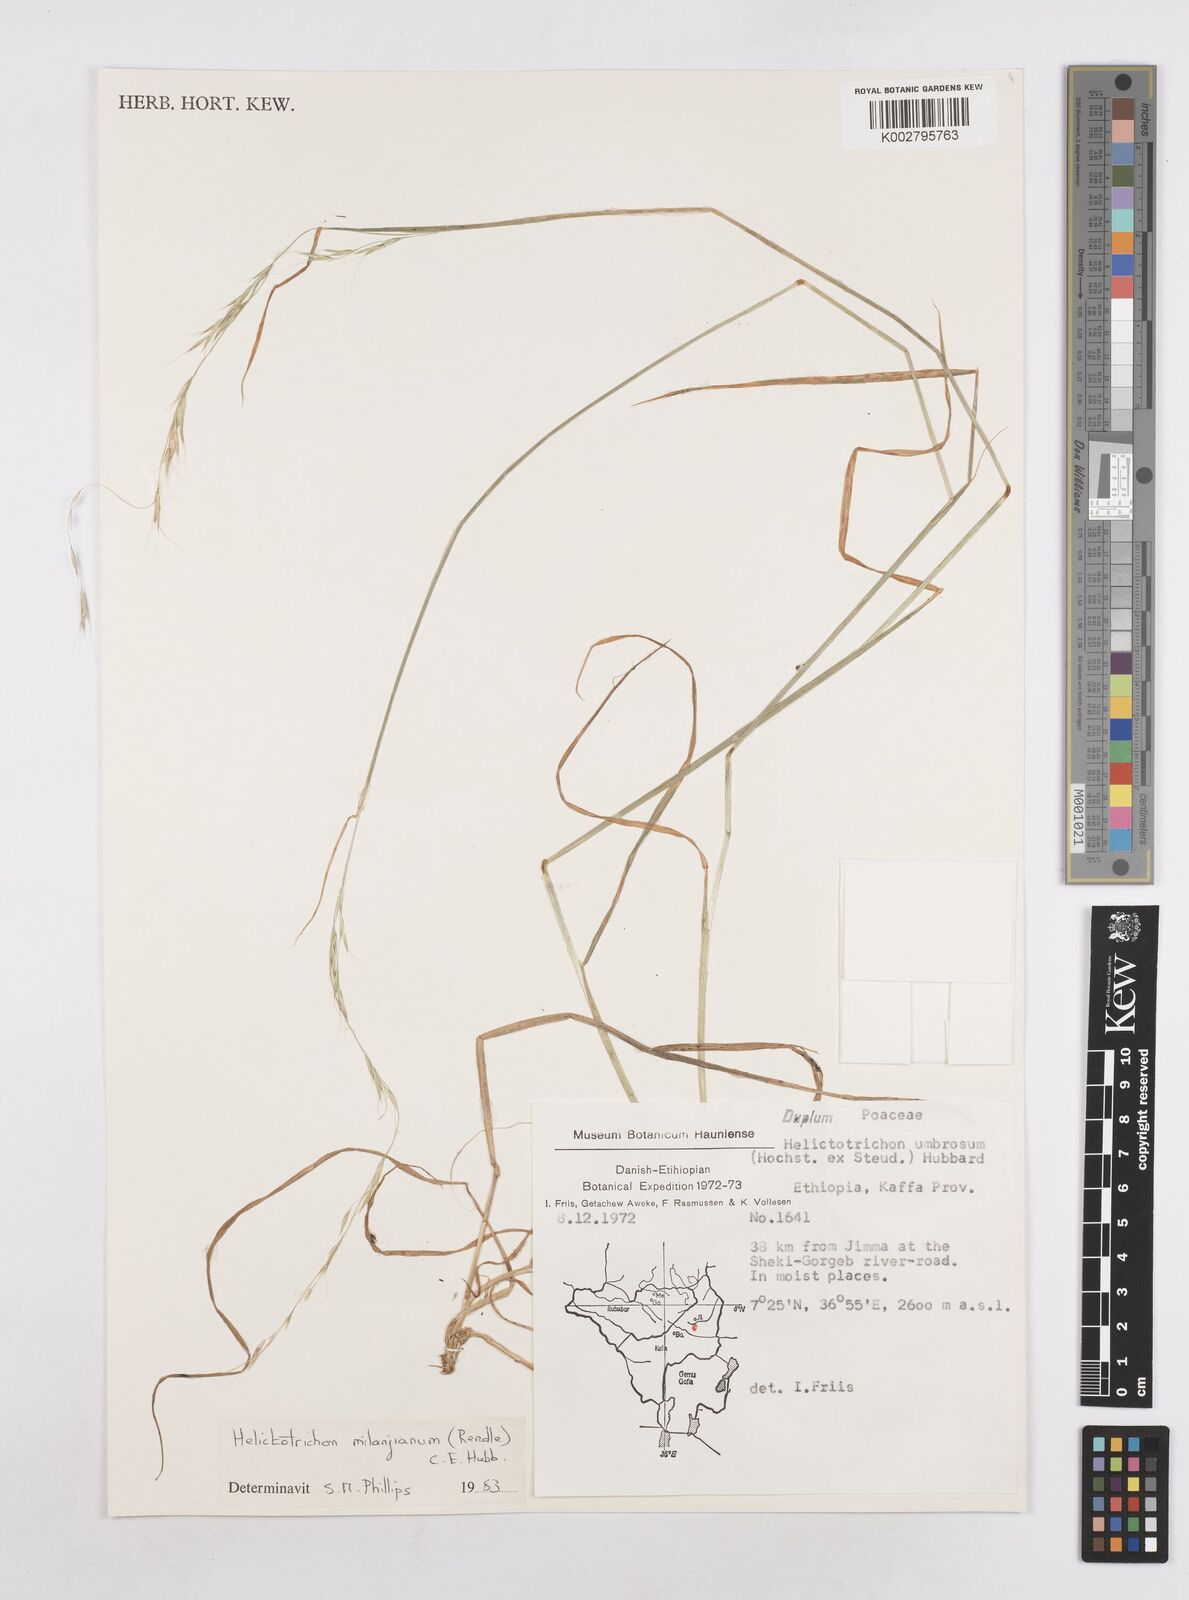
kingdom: Plantae
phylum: Tracheophyta
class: Liliopsida
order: Poales
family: Poaceae
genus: Trisetopsis
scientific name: Trisetopsis milanjiana
